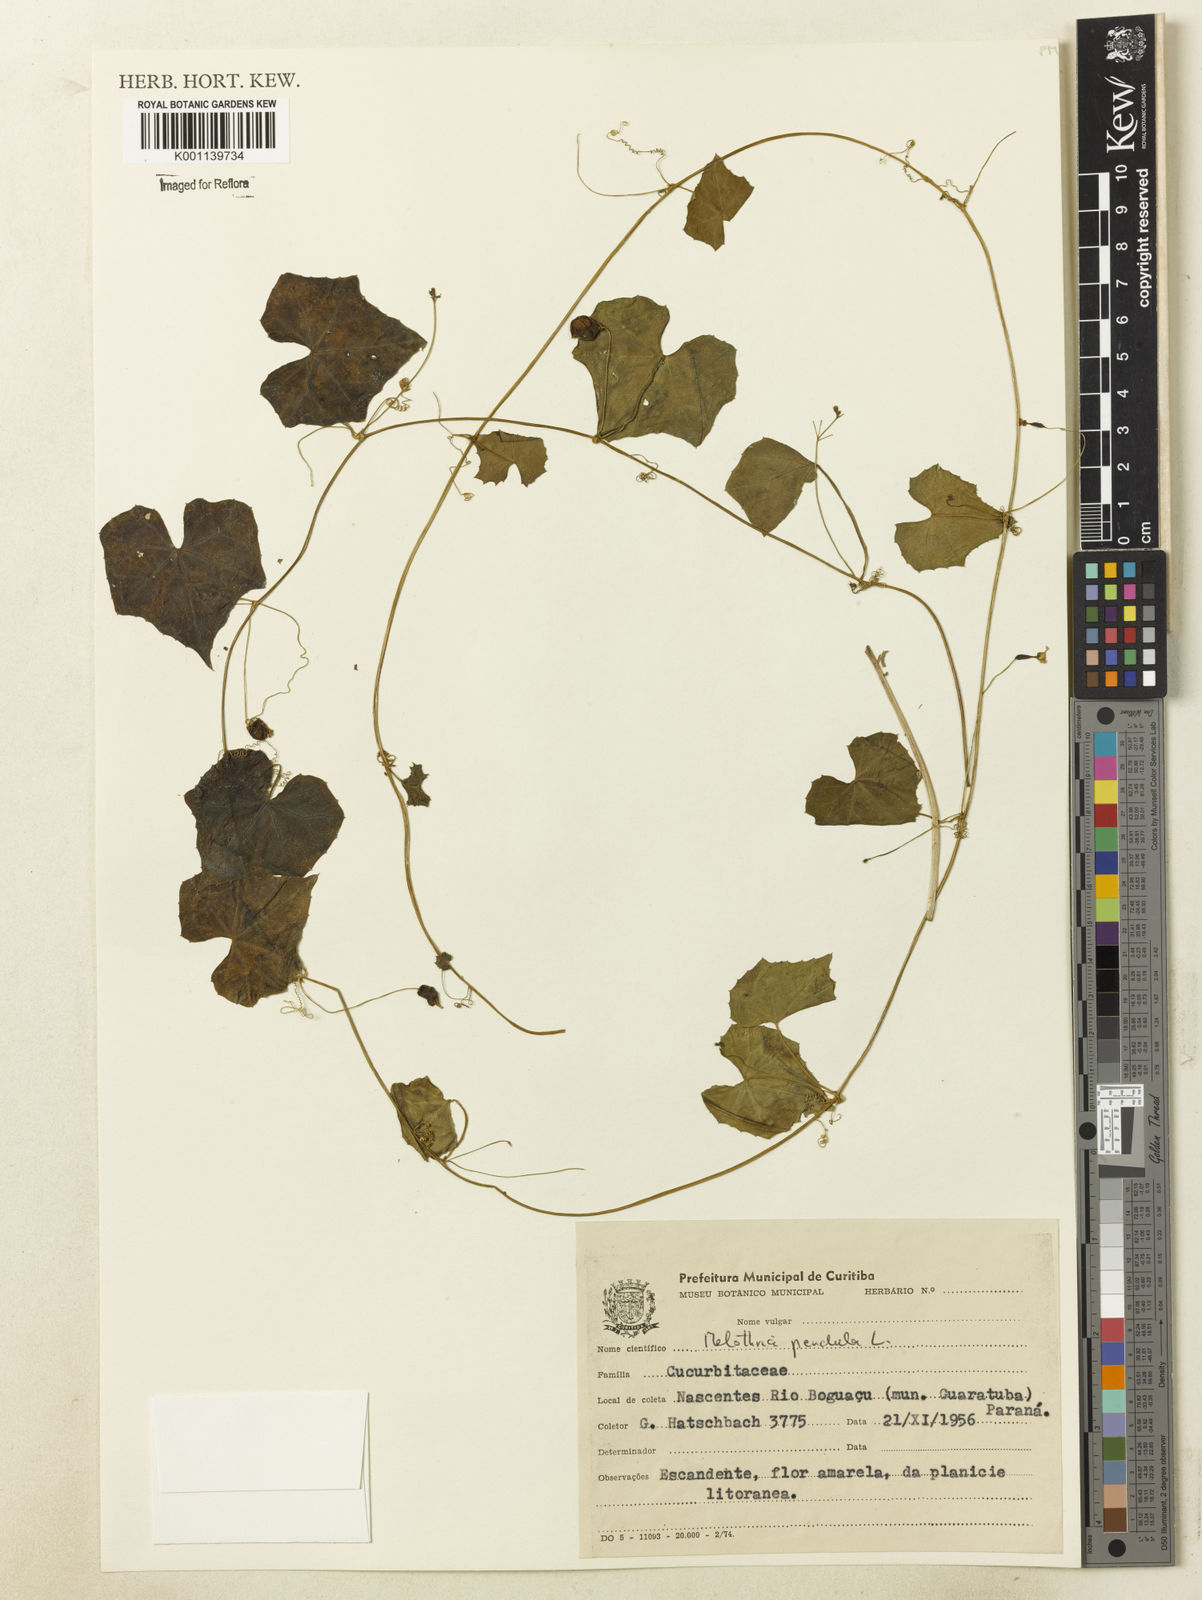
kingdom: Plantae
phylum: Tracheophyta
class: Magnoliopsida
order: Cucurbitales
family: Cucurbitaceae
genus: Melothria
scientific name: Melothria pendula
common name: Creeping-cucumber
